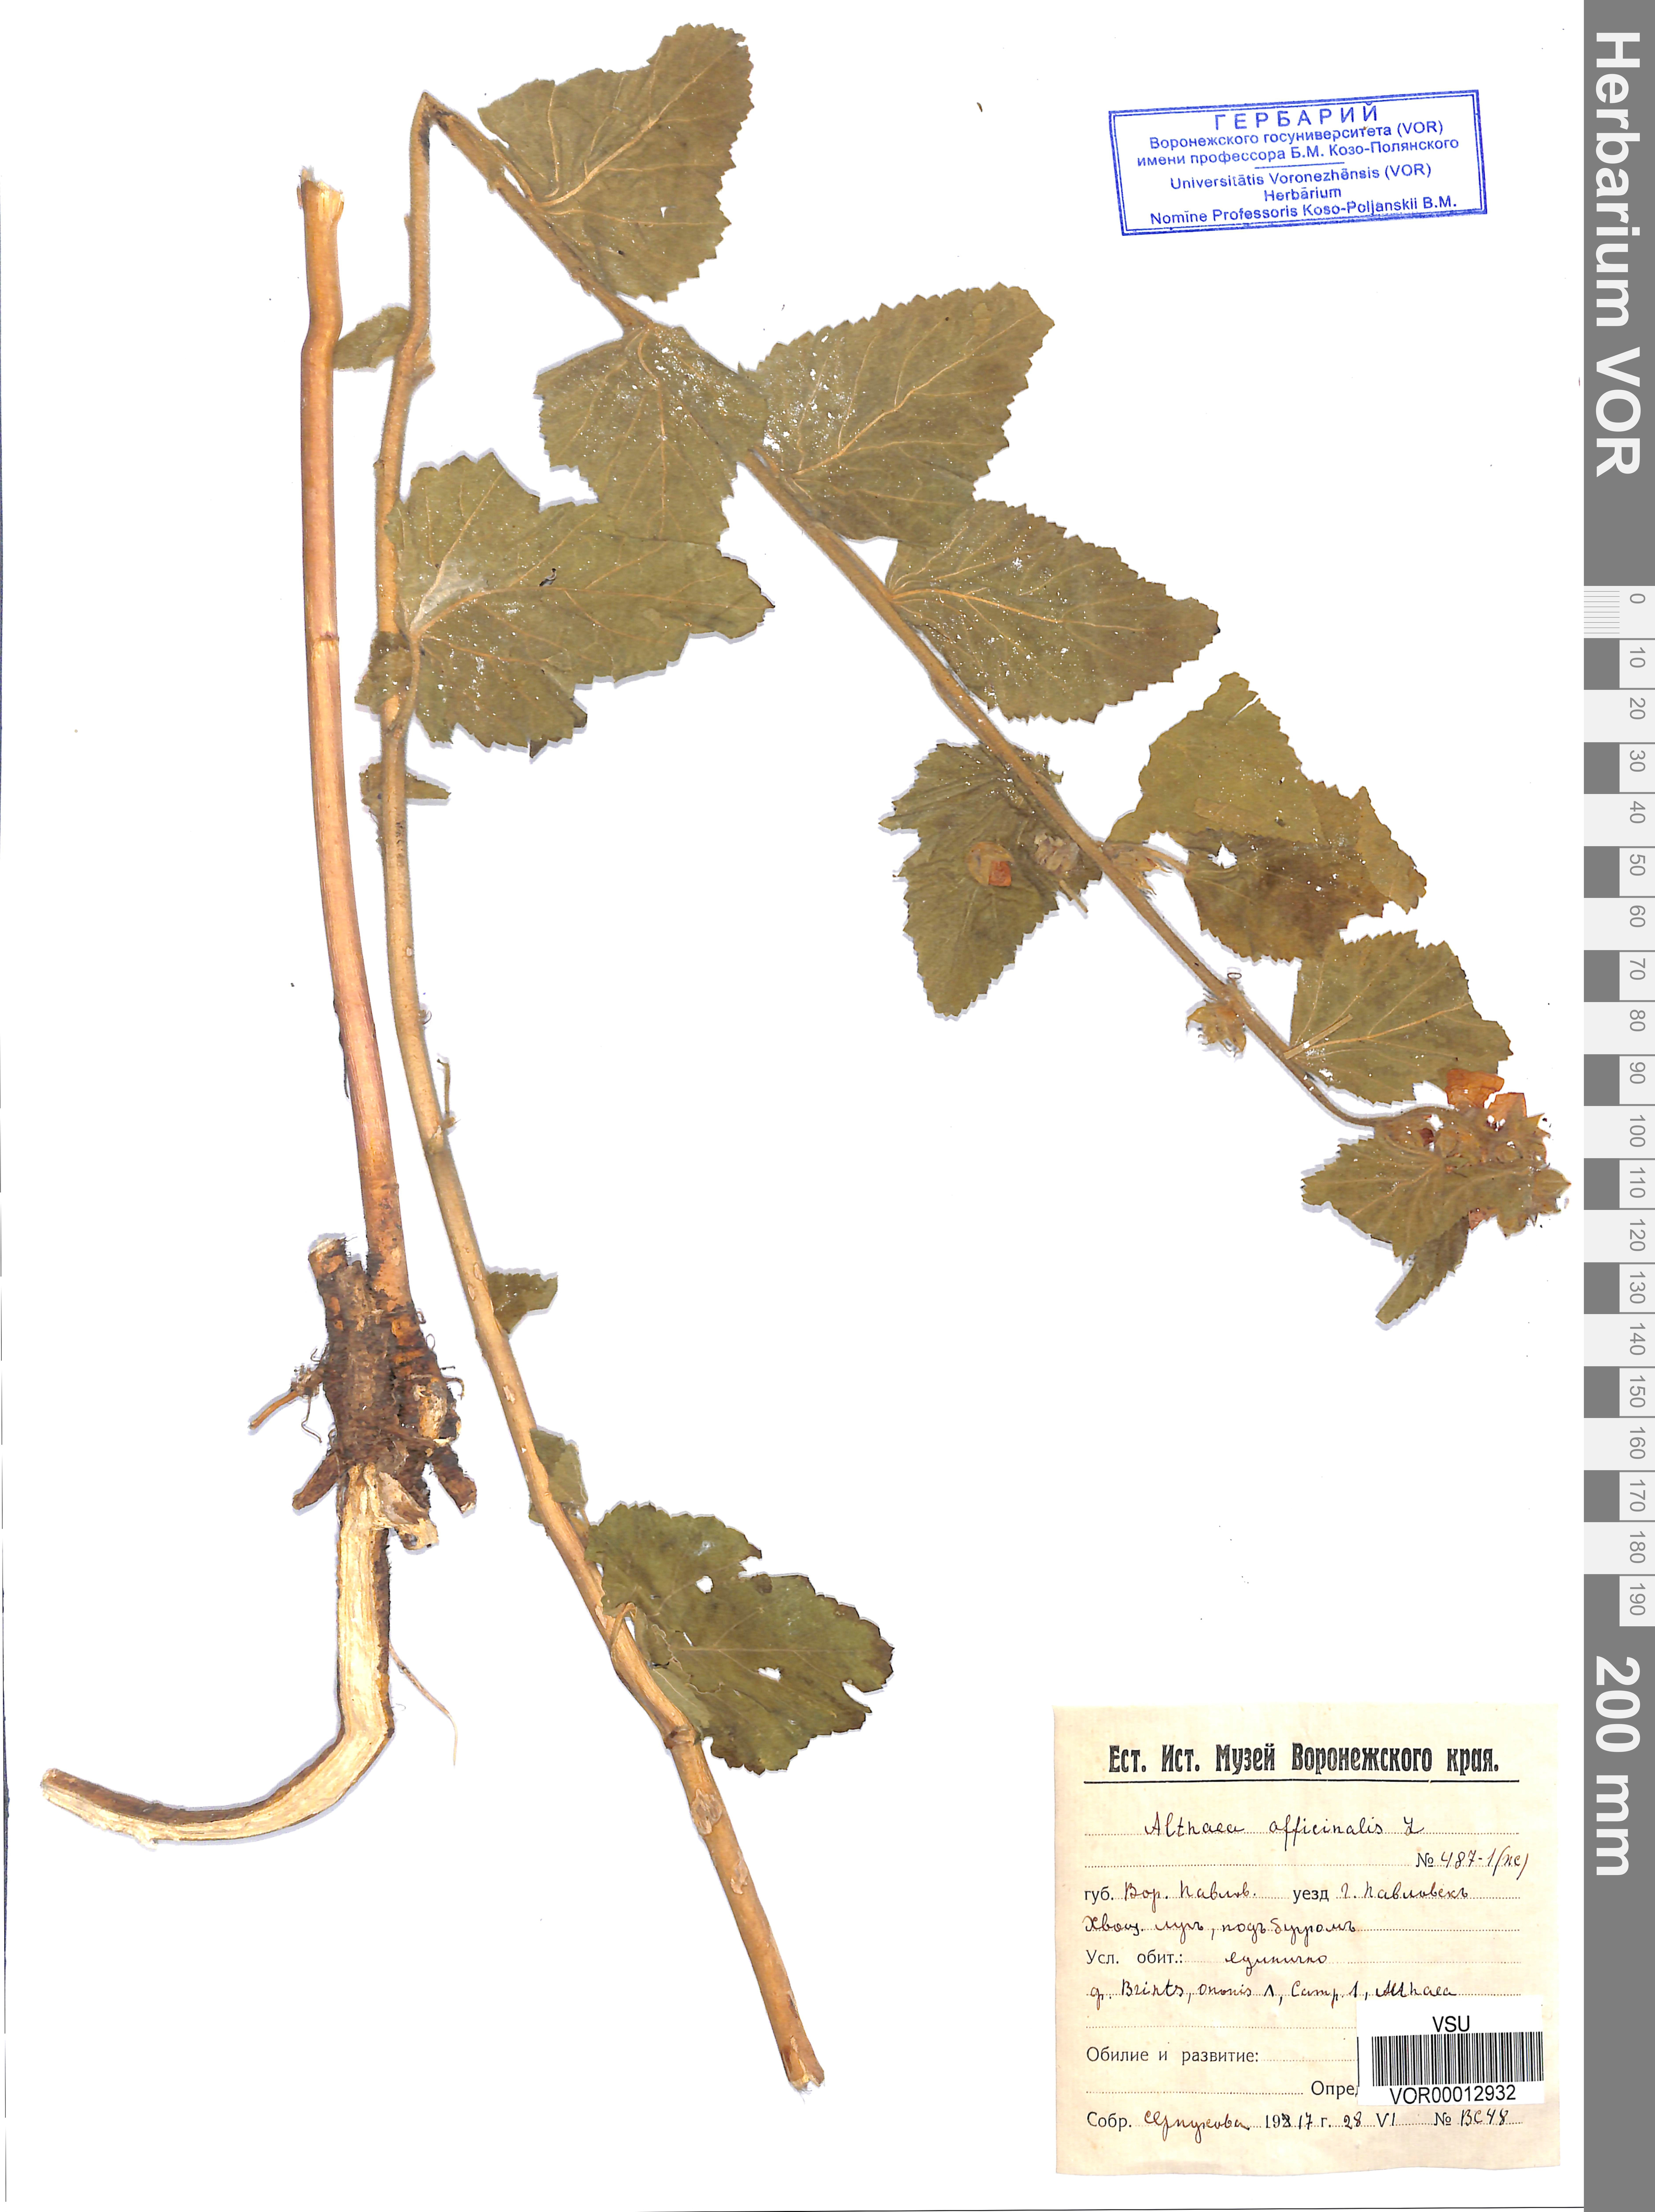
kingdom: Plantae
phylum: Tracheophyta
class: Magnoliopsida
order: Malvales
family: Malvaceae
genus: Althaea
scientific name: Althaea officinalis
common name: Marsh-mallow
